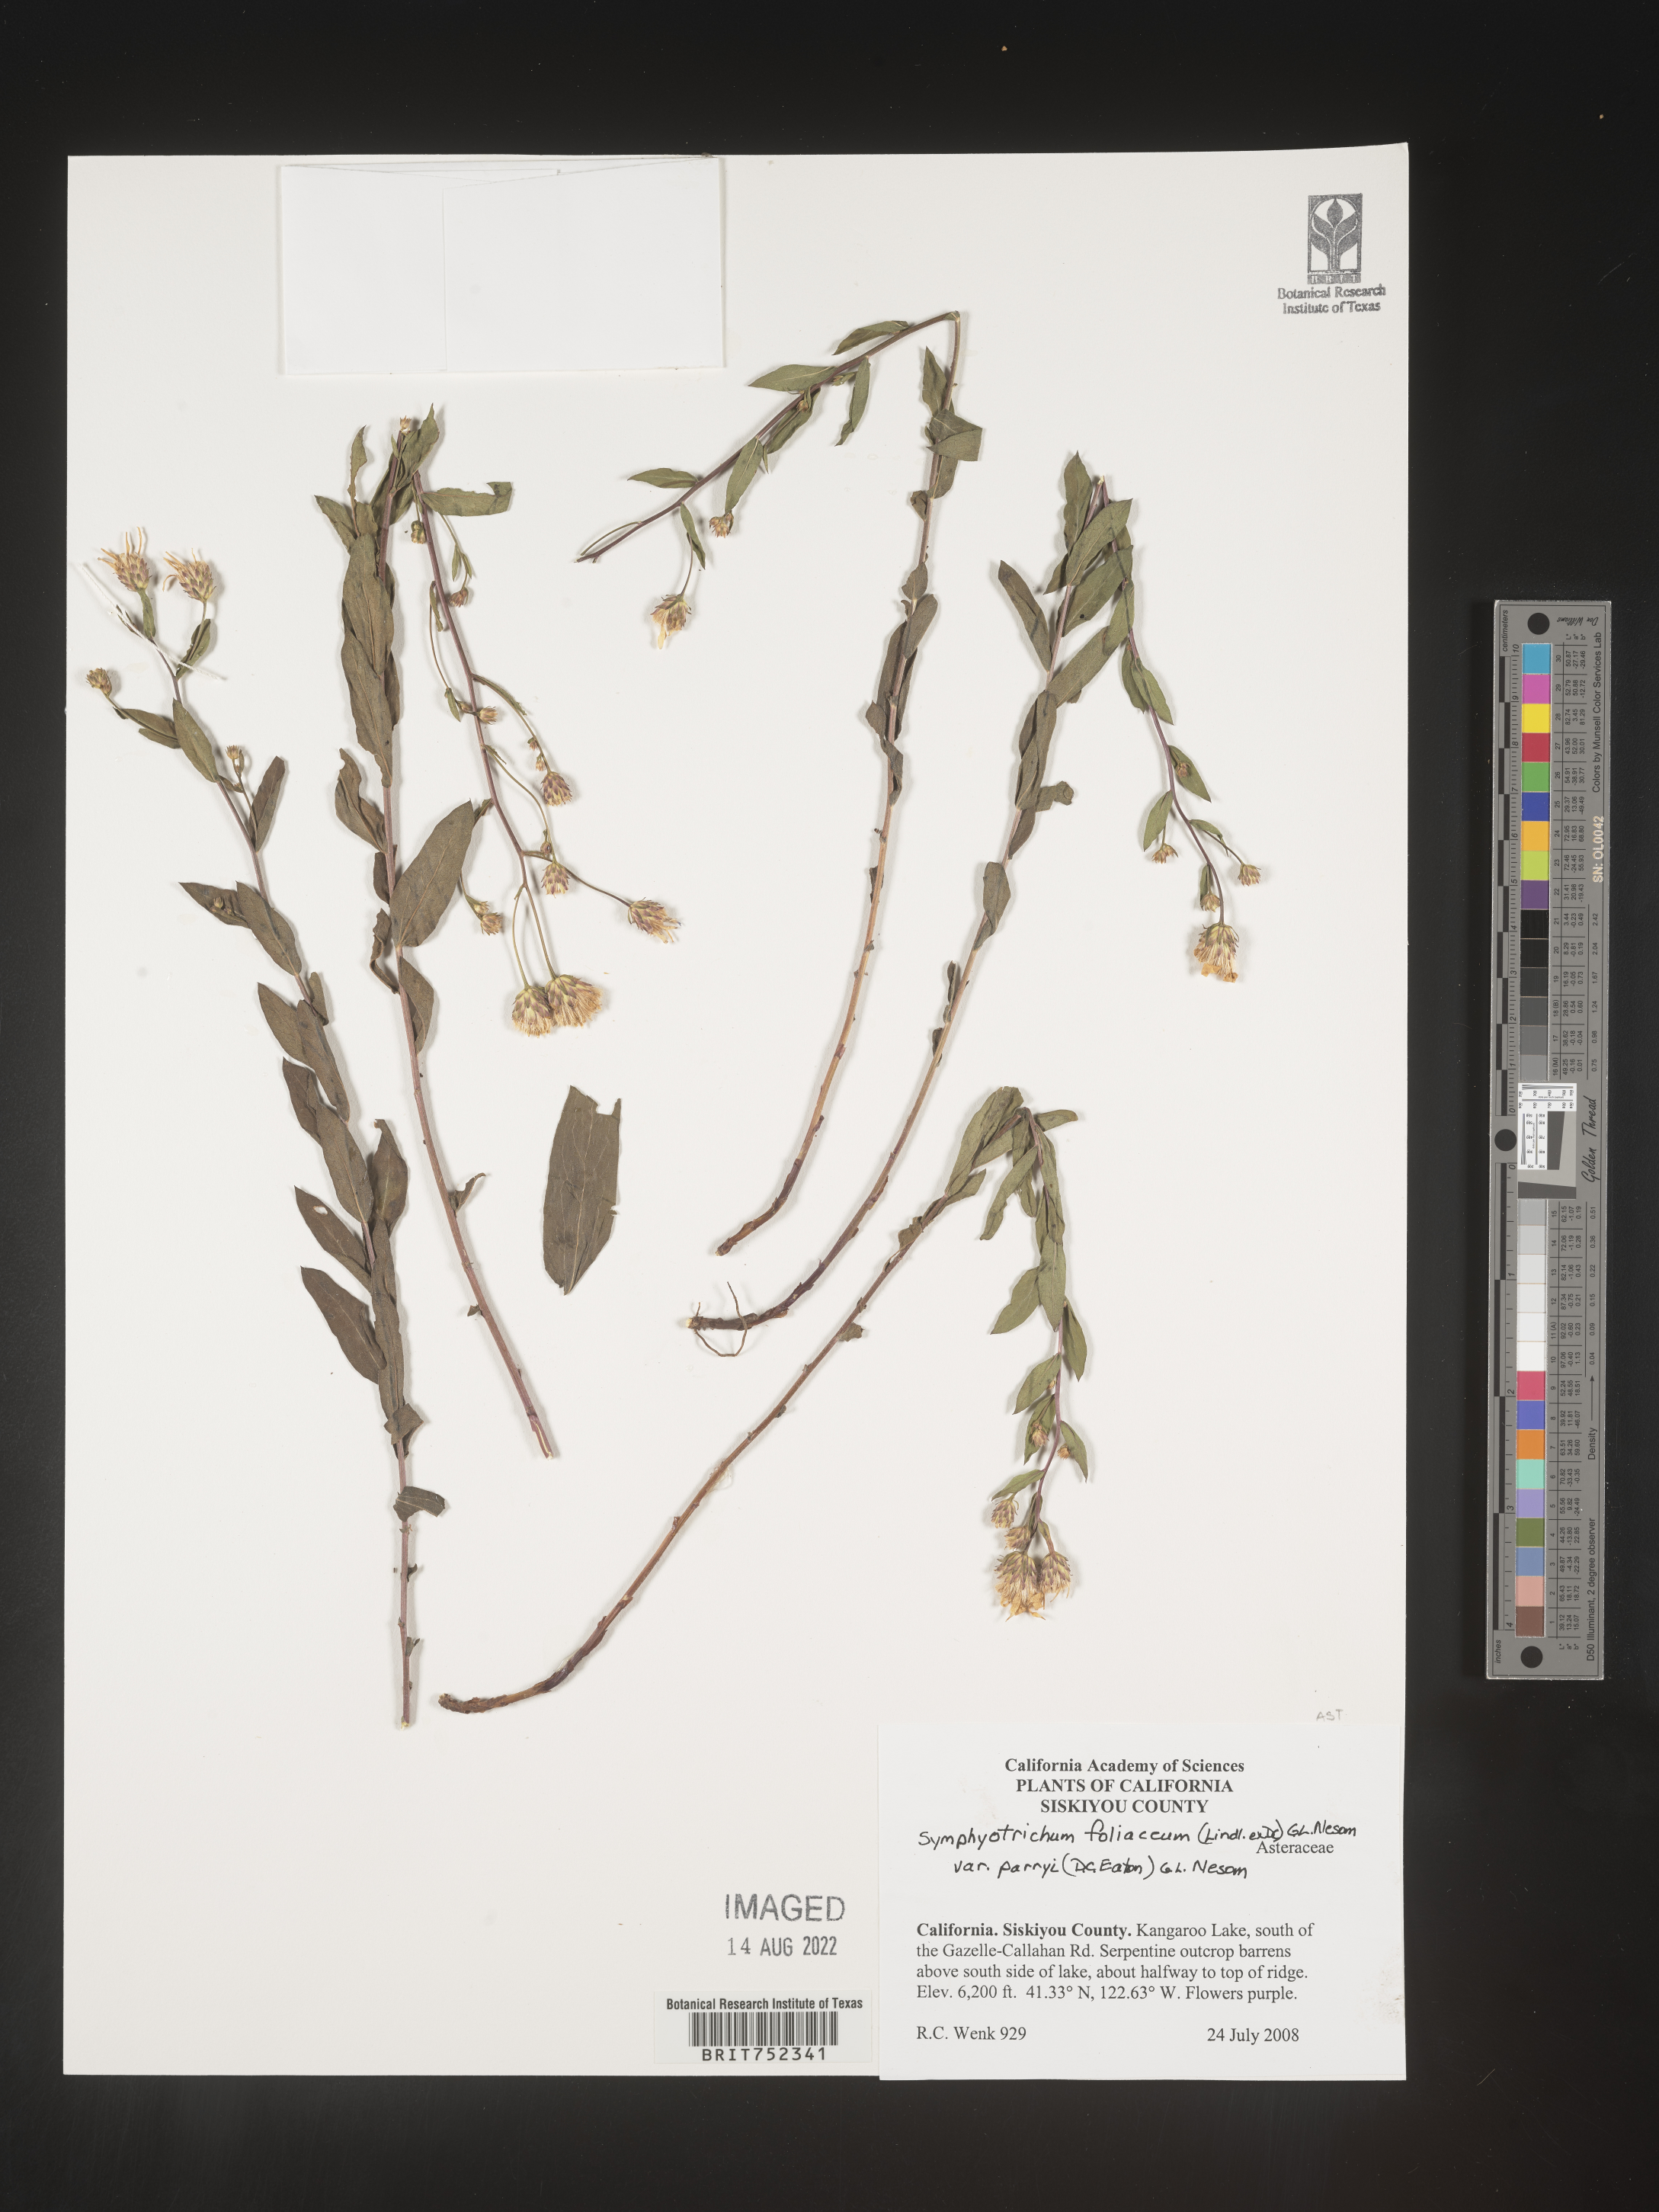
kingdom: Plantae
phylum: Tracheophyta
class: Magnoliopsida
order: Asterales
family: Asteraceae
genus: Symphyotrichum
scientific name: Symphyotrichum foliaceum
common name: Leafy aster
